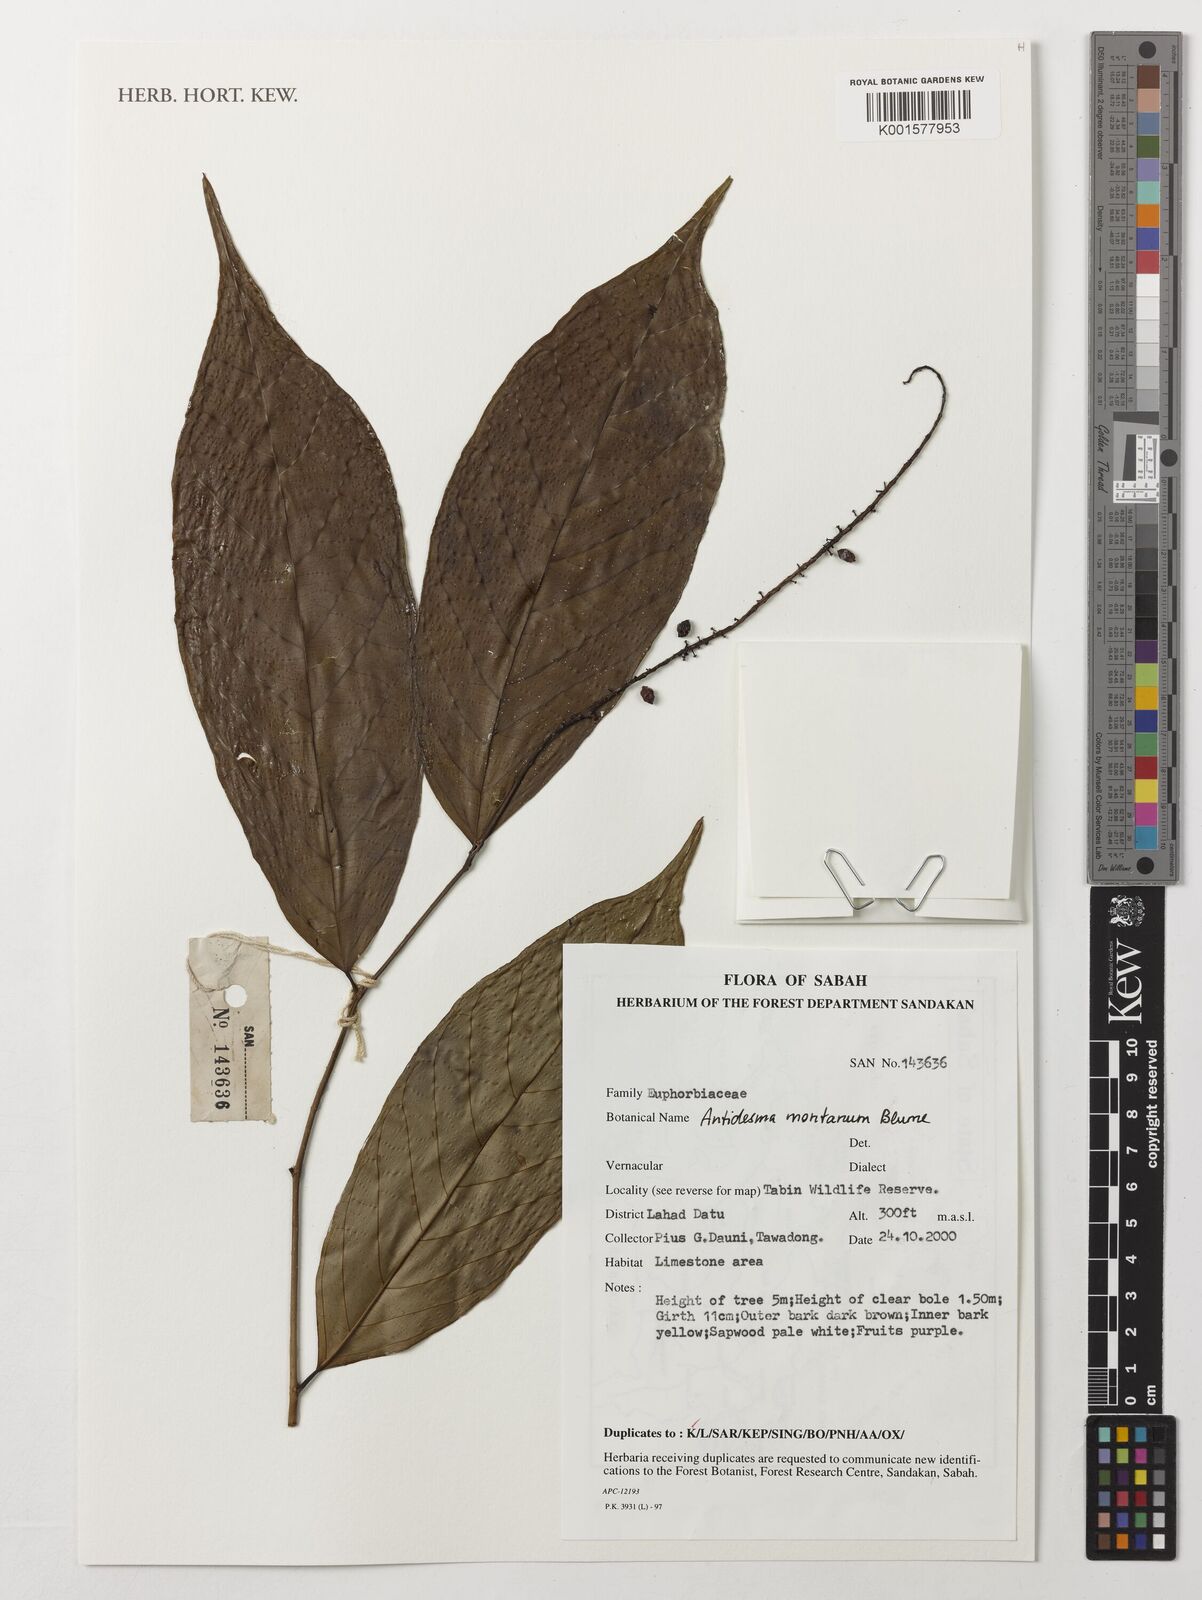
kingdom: Plantae
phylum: Tracheophyta
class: Magnoliopsida
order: Malpighiales
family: Phyllanthaceae
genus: Antidesma
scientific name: Antidesma montanum
